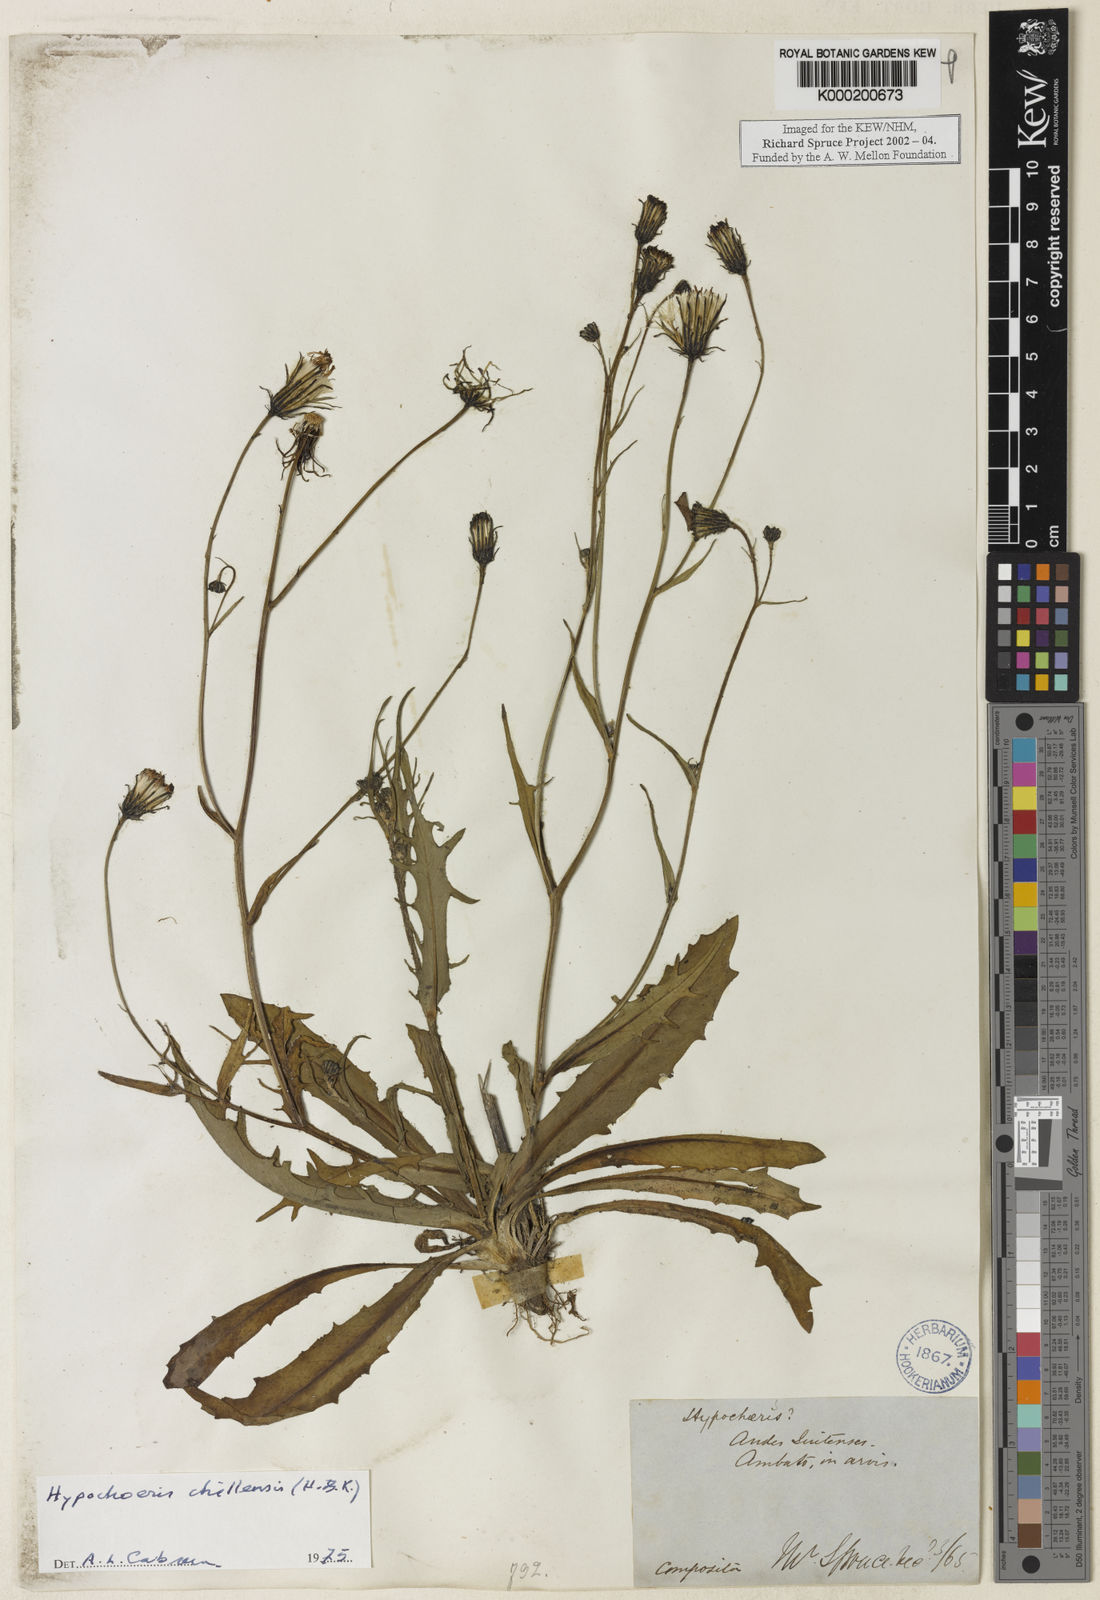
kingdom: Plantae
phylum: Tracheophyta
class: Magnoliopsida
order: Asterales
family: Asteraceae
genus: Hypochaeris
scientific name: Hypochaeris sessiliflora
